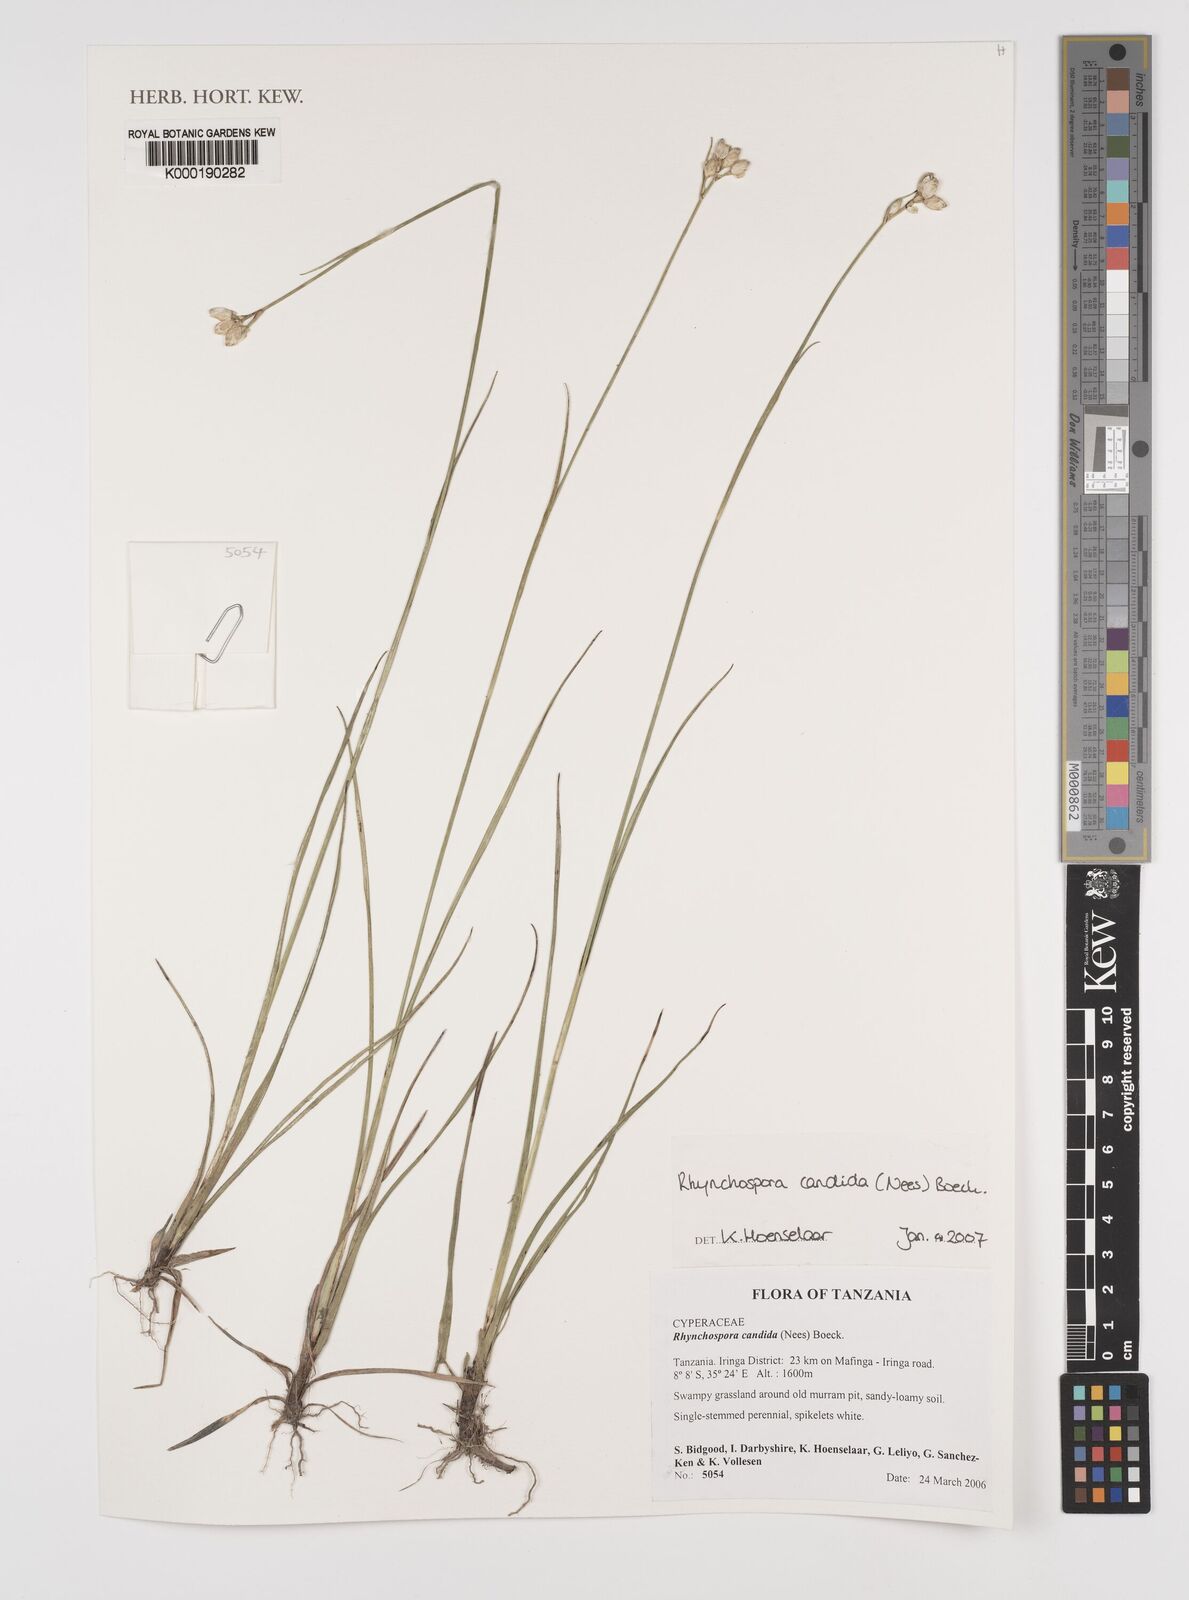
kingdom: Plantae
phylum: Tracheophyta
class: Liliopsida
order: Poales
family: Cyperaceae
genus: Rhynchospora
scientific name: Rhynchospora candida
